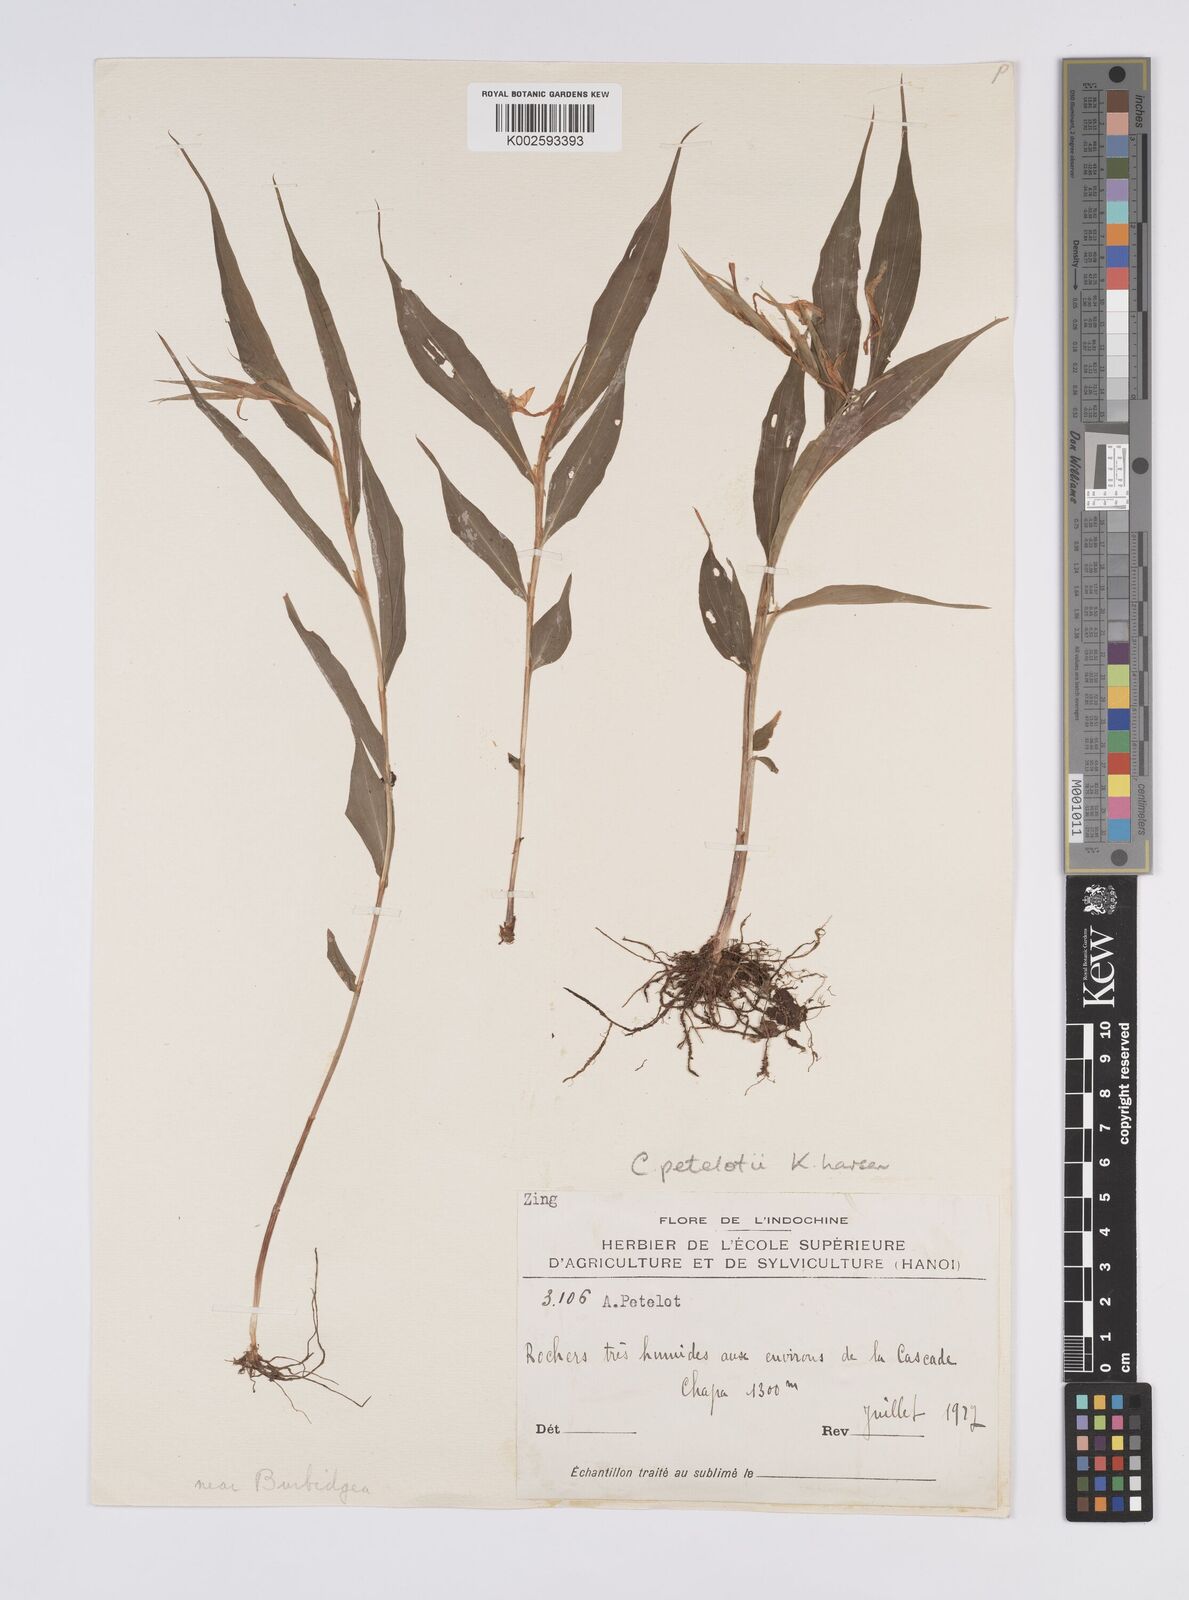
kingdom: Plantae
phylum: Tracheophyta
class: Liliopsida
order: Zingiberales
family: Zingiberaceae
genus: Caulokaempferia
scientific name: Caulokaempferia petelotii
